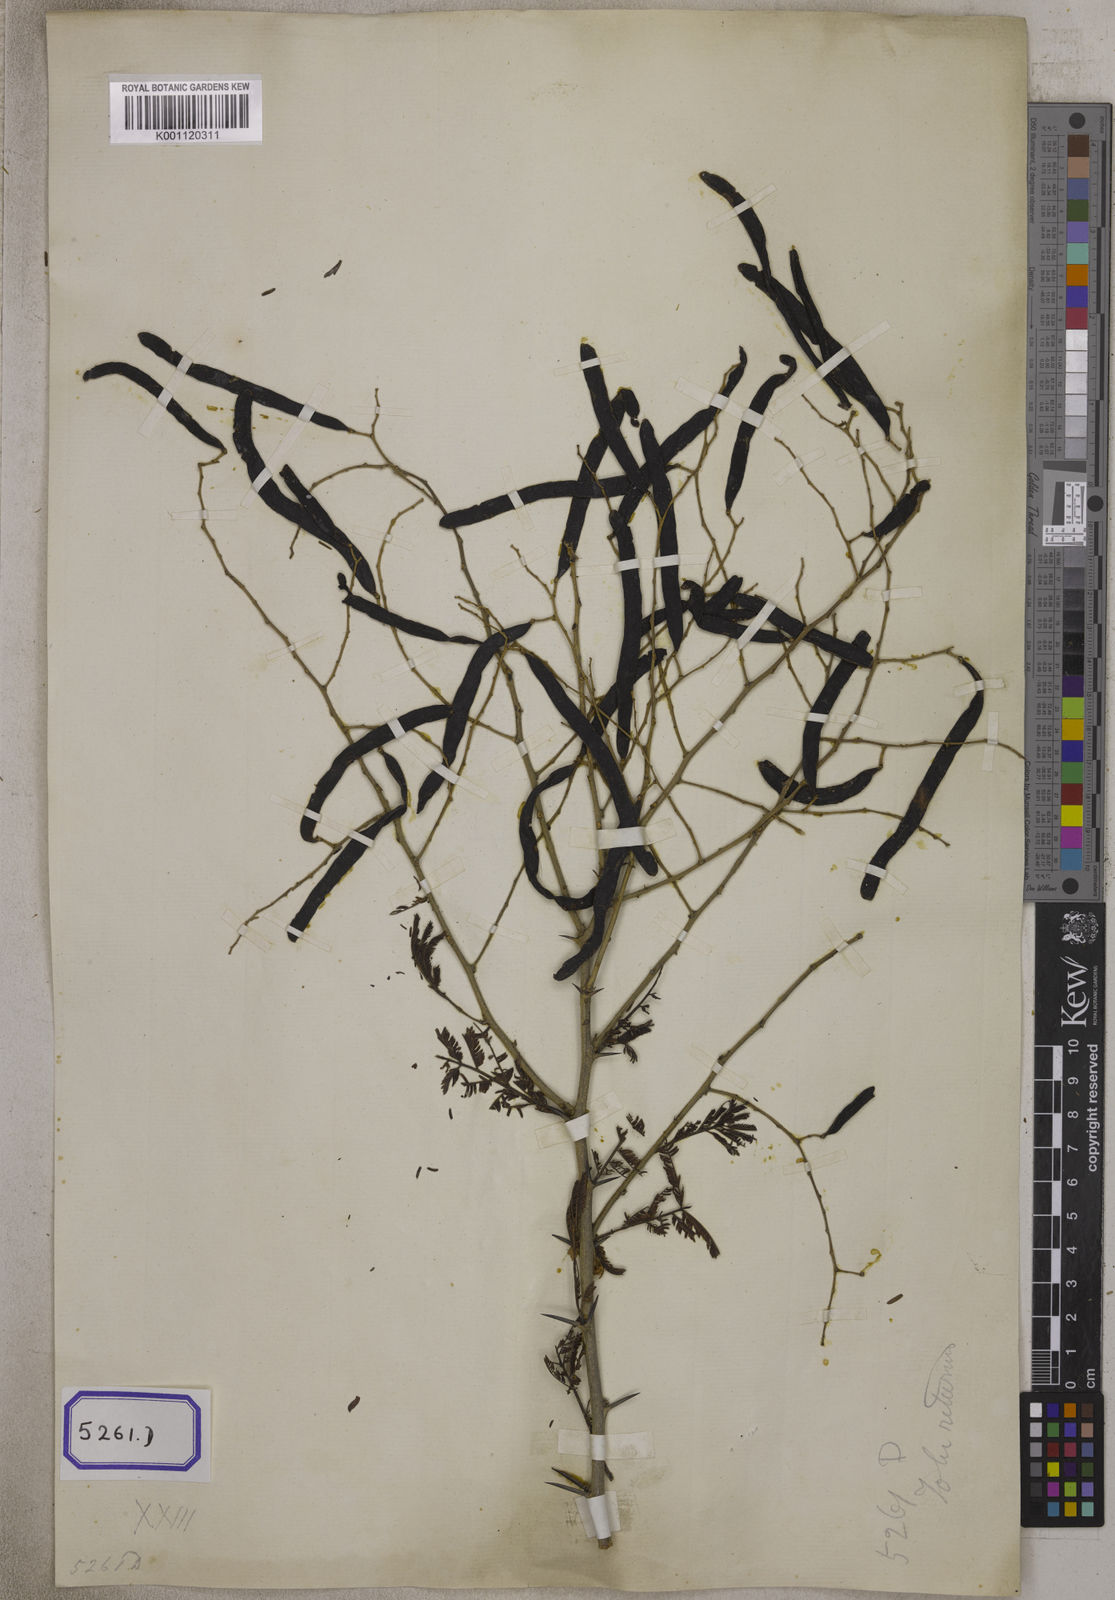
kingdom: Plantae
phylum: Tracheophyta
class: Magnoliopsida
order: Fabales
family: Fabaceae
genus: Vachellia
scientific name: Vachellia leucophloea
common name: Distiller's acacia
